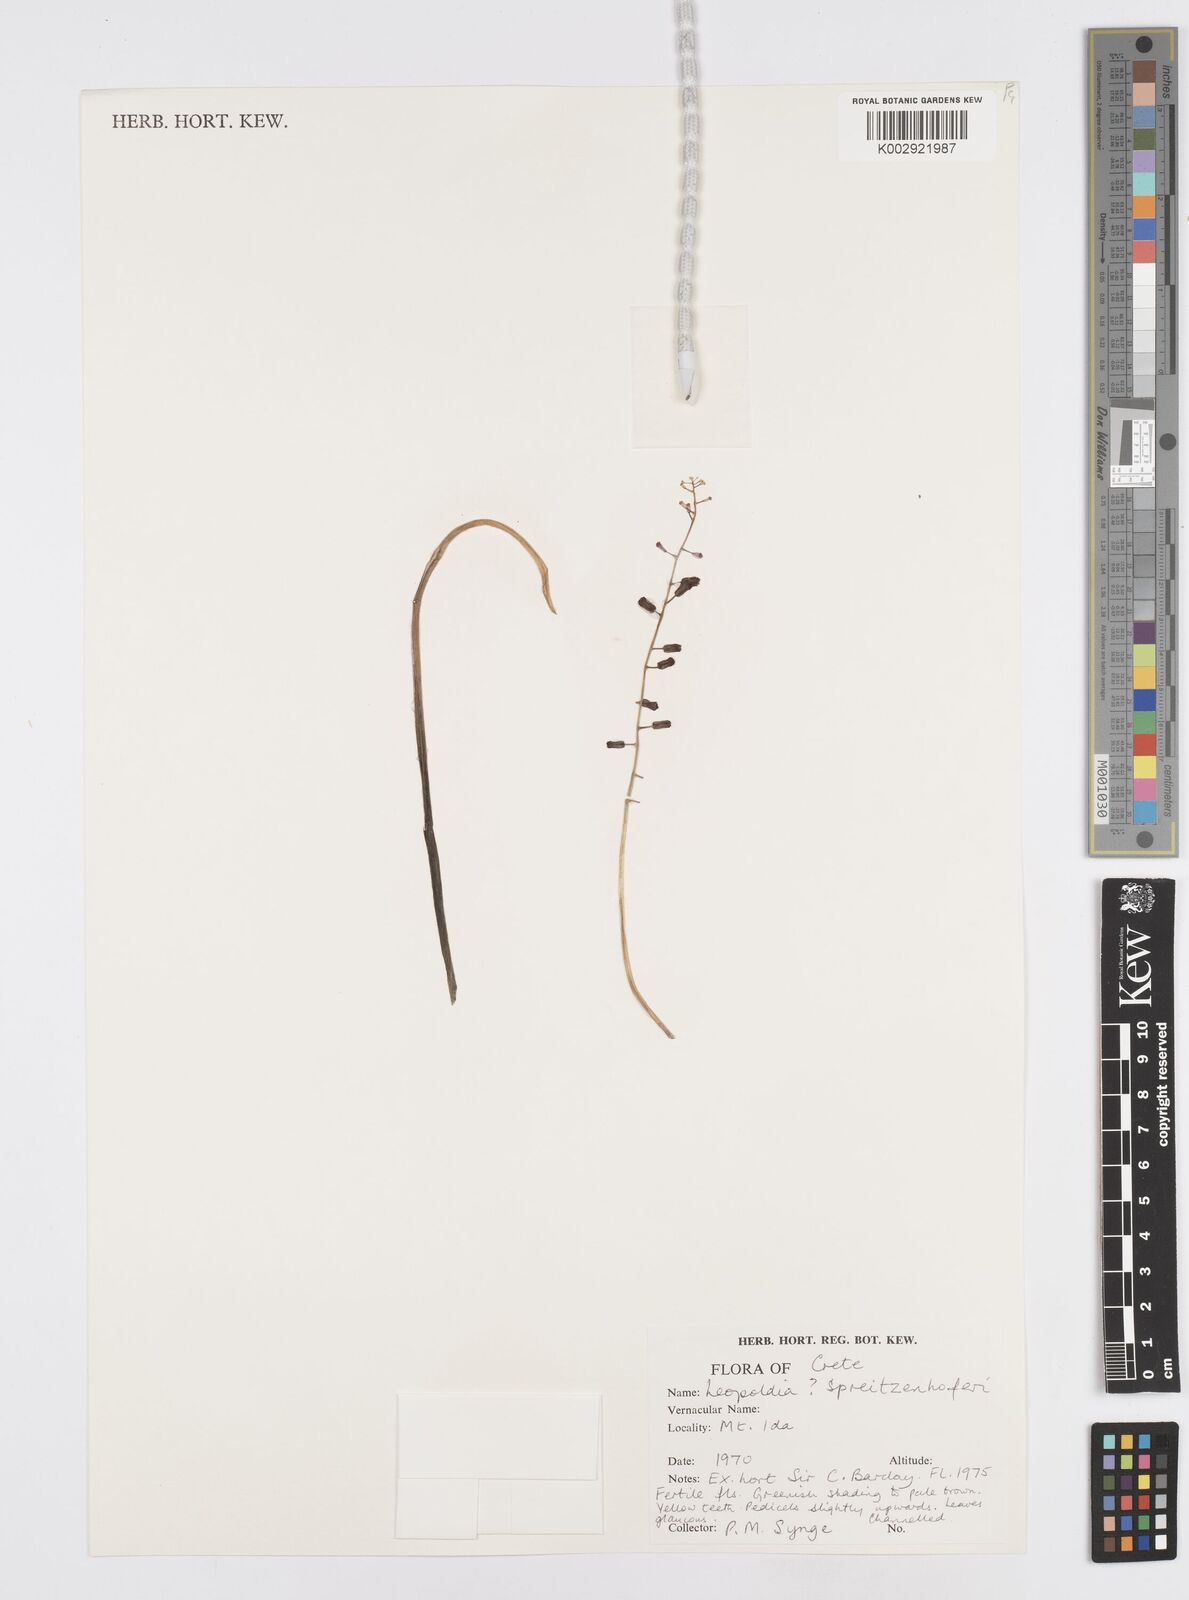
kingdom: Plantae
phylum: Tracheophyta
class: Liliopsida
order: Asparagales
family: Asparagaceae
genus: Muscari
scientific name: Muscari spreitzenhoferi
